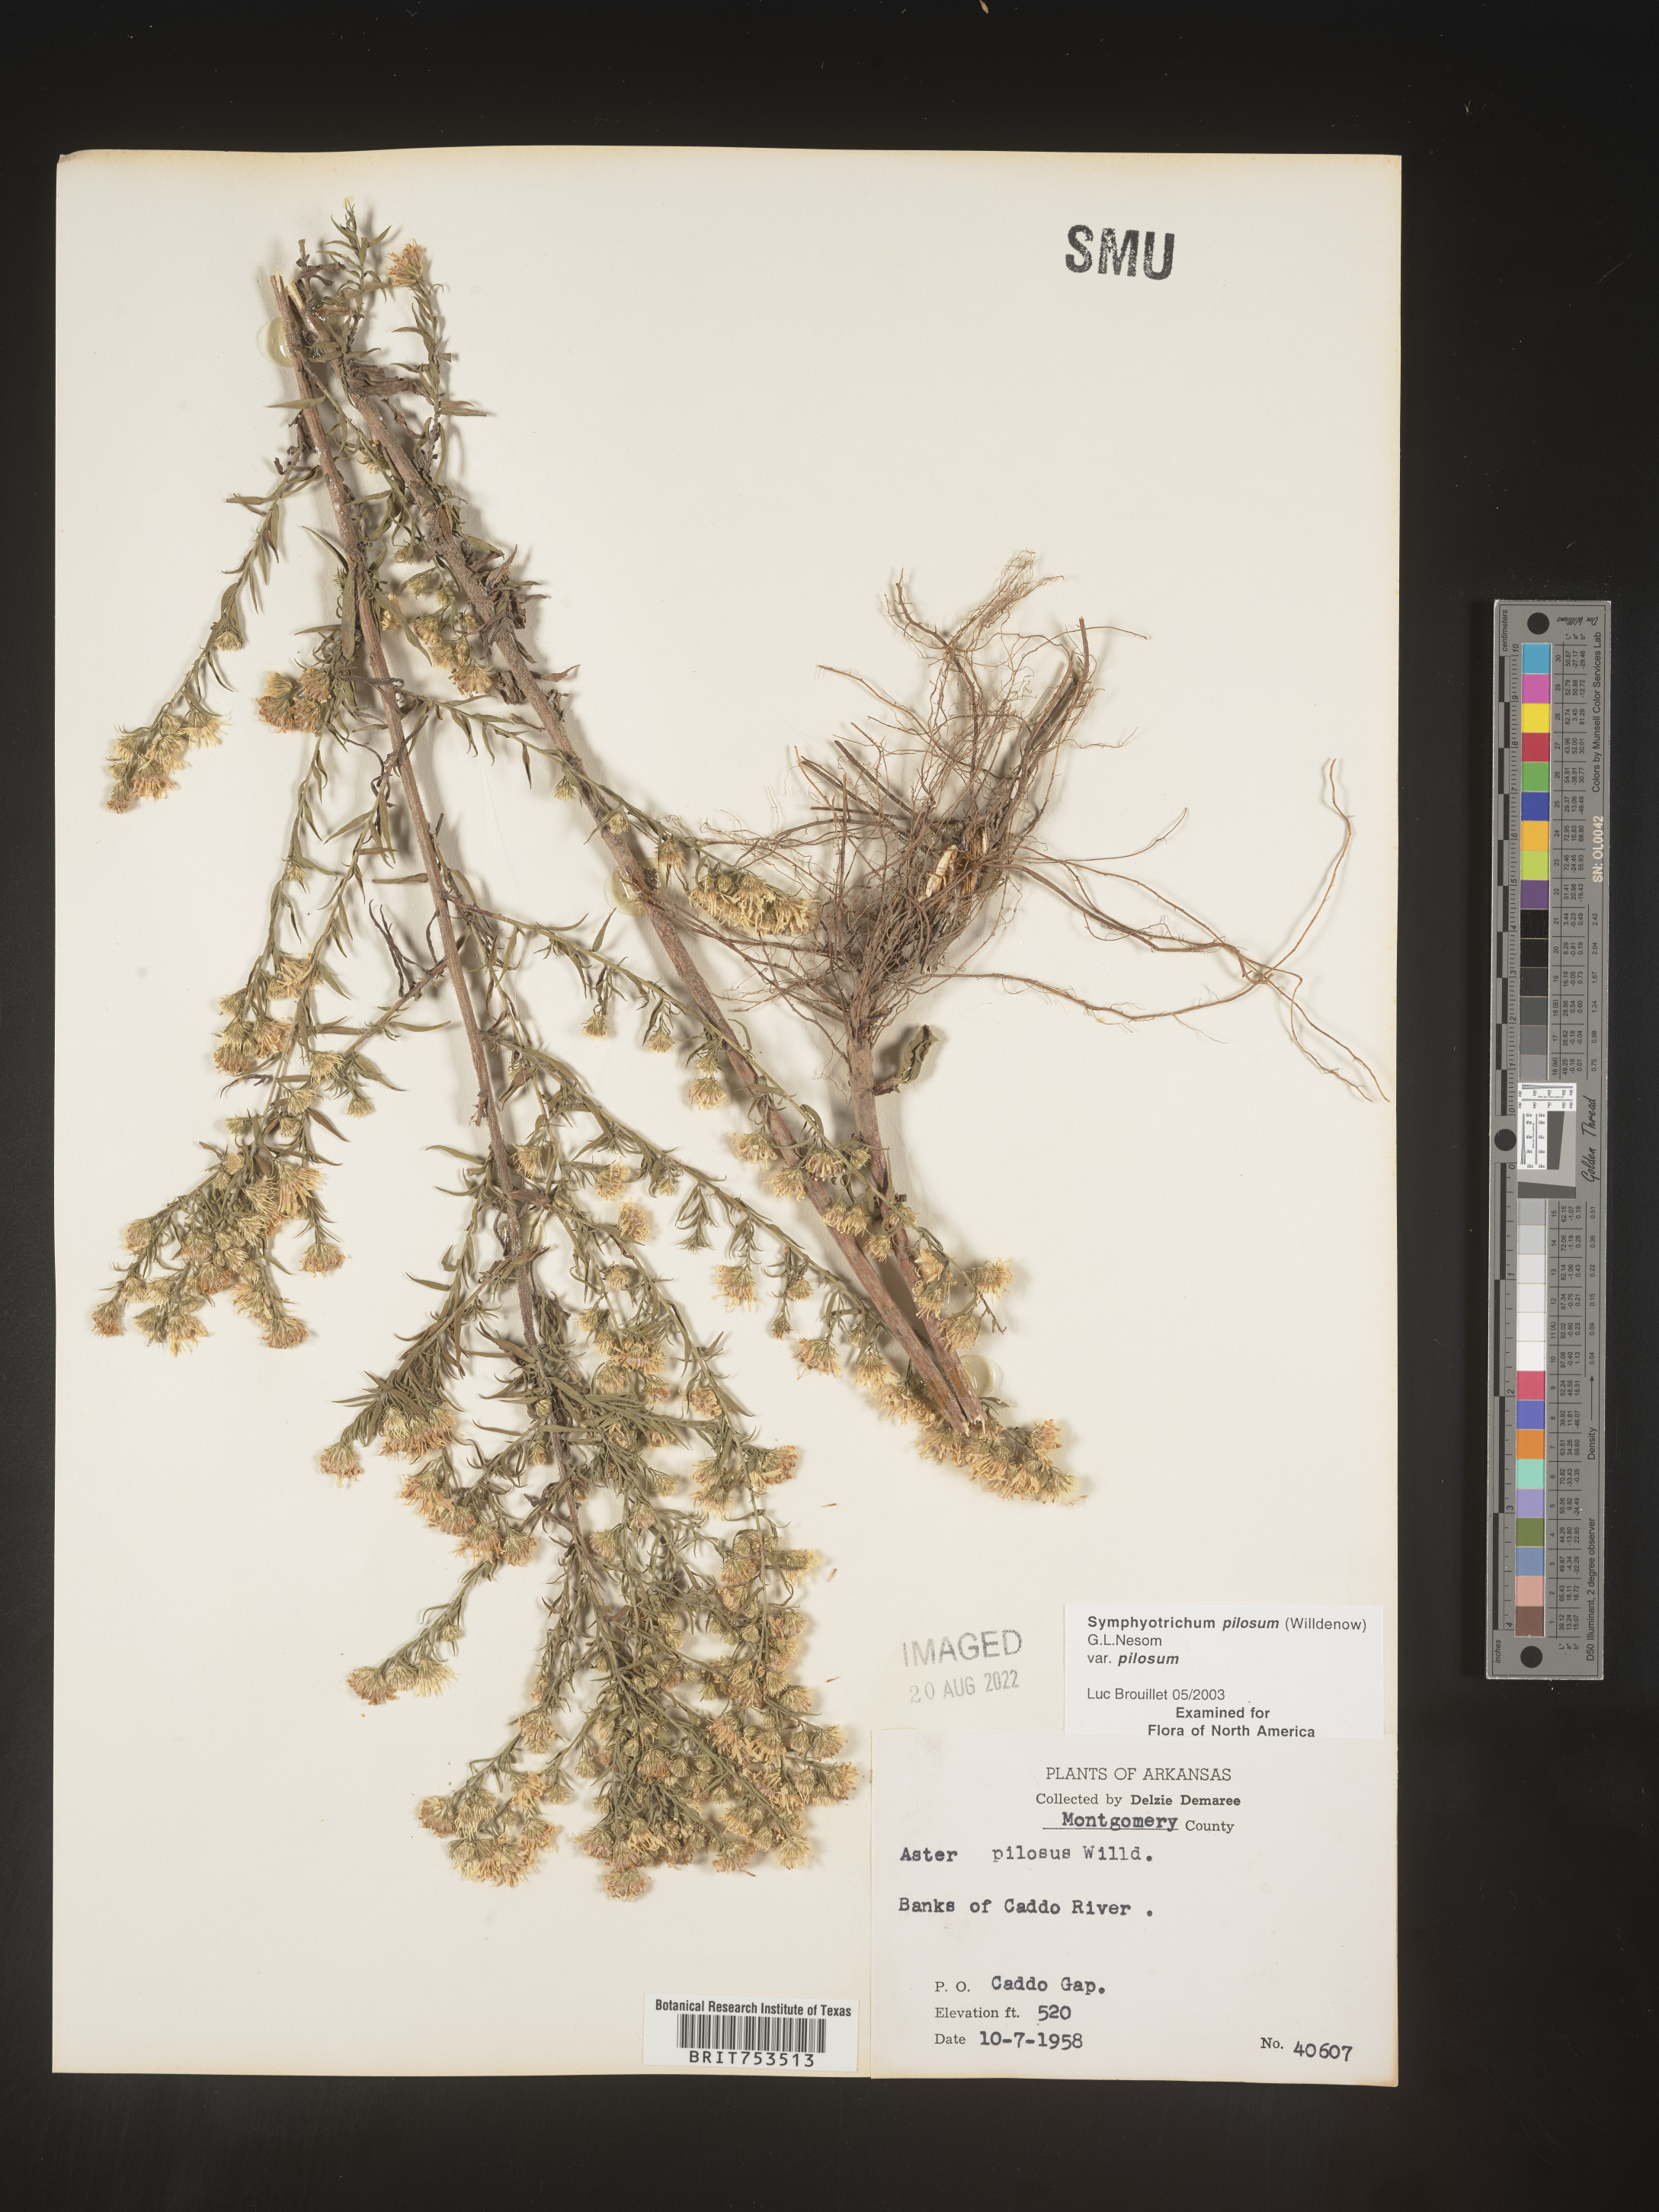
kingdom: Plantae
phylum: Tracheophyta
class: Magnoliopsida
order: Asterales
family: Asteraceae
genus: Symphyotrichum
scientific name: Symphyotrichum pilosum
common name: Awl aster
